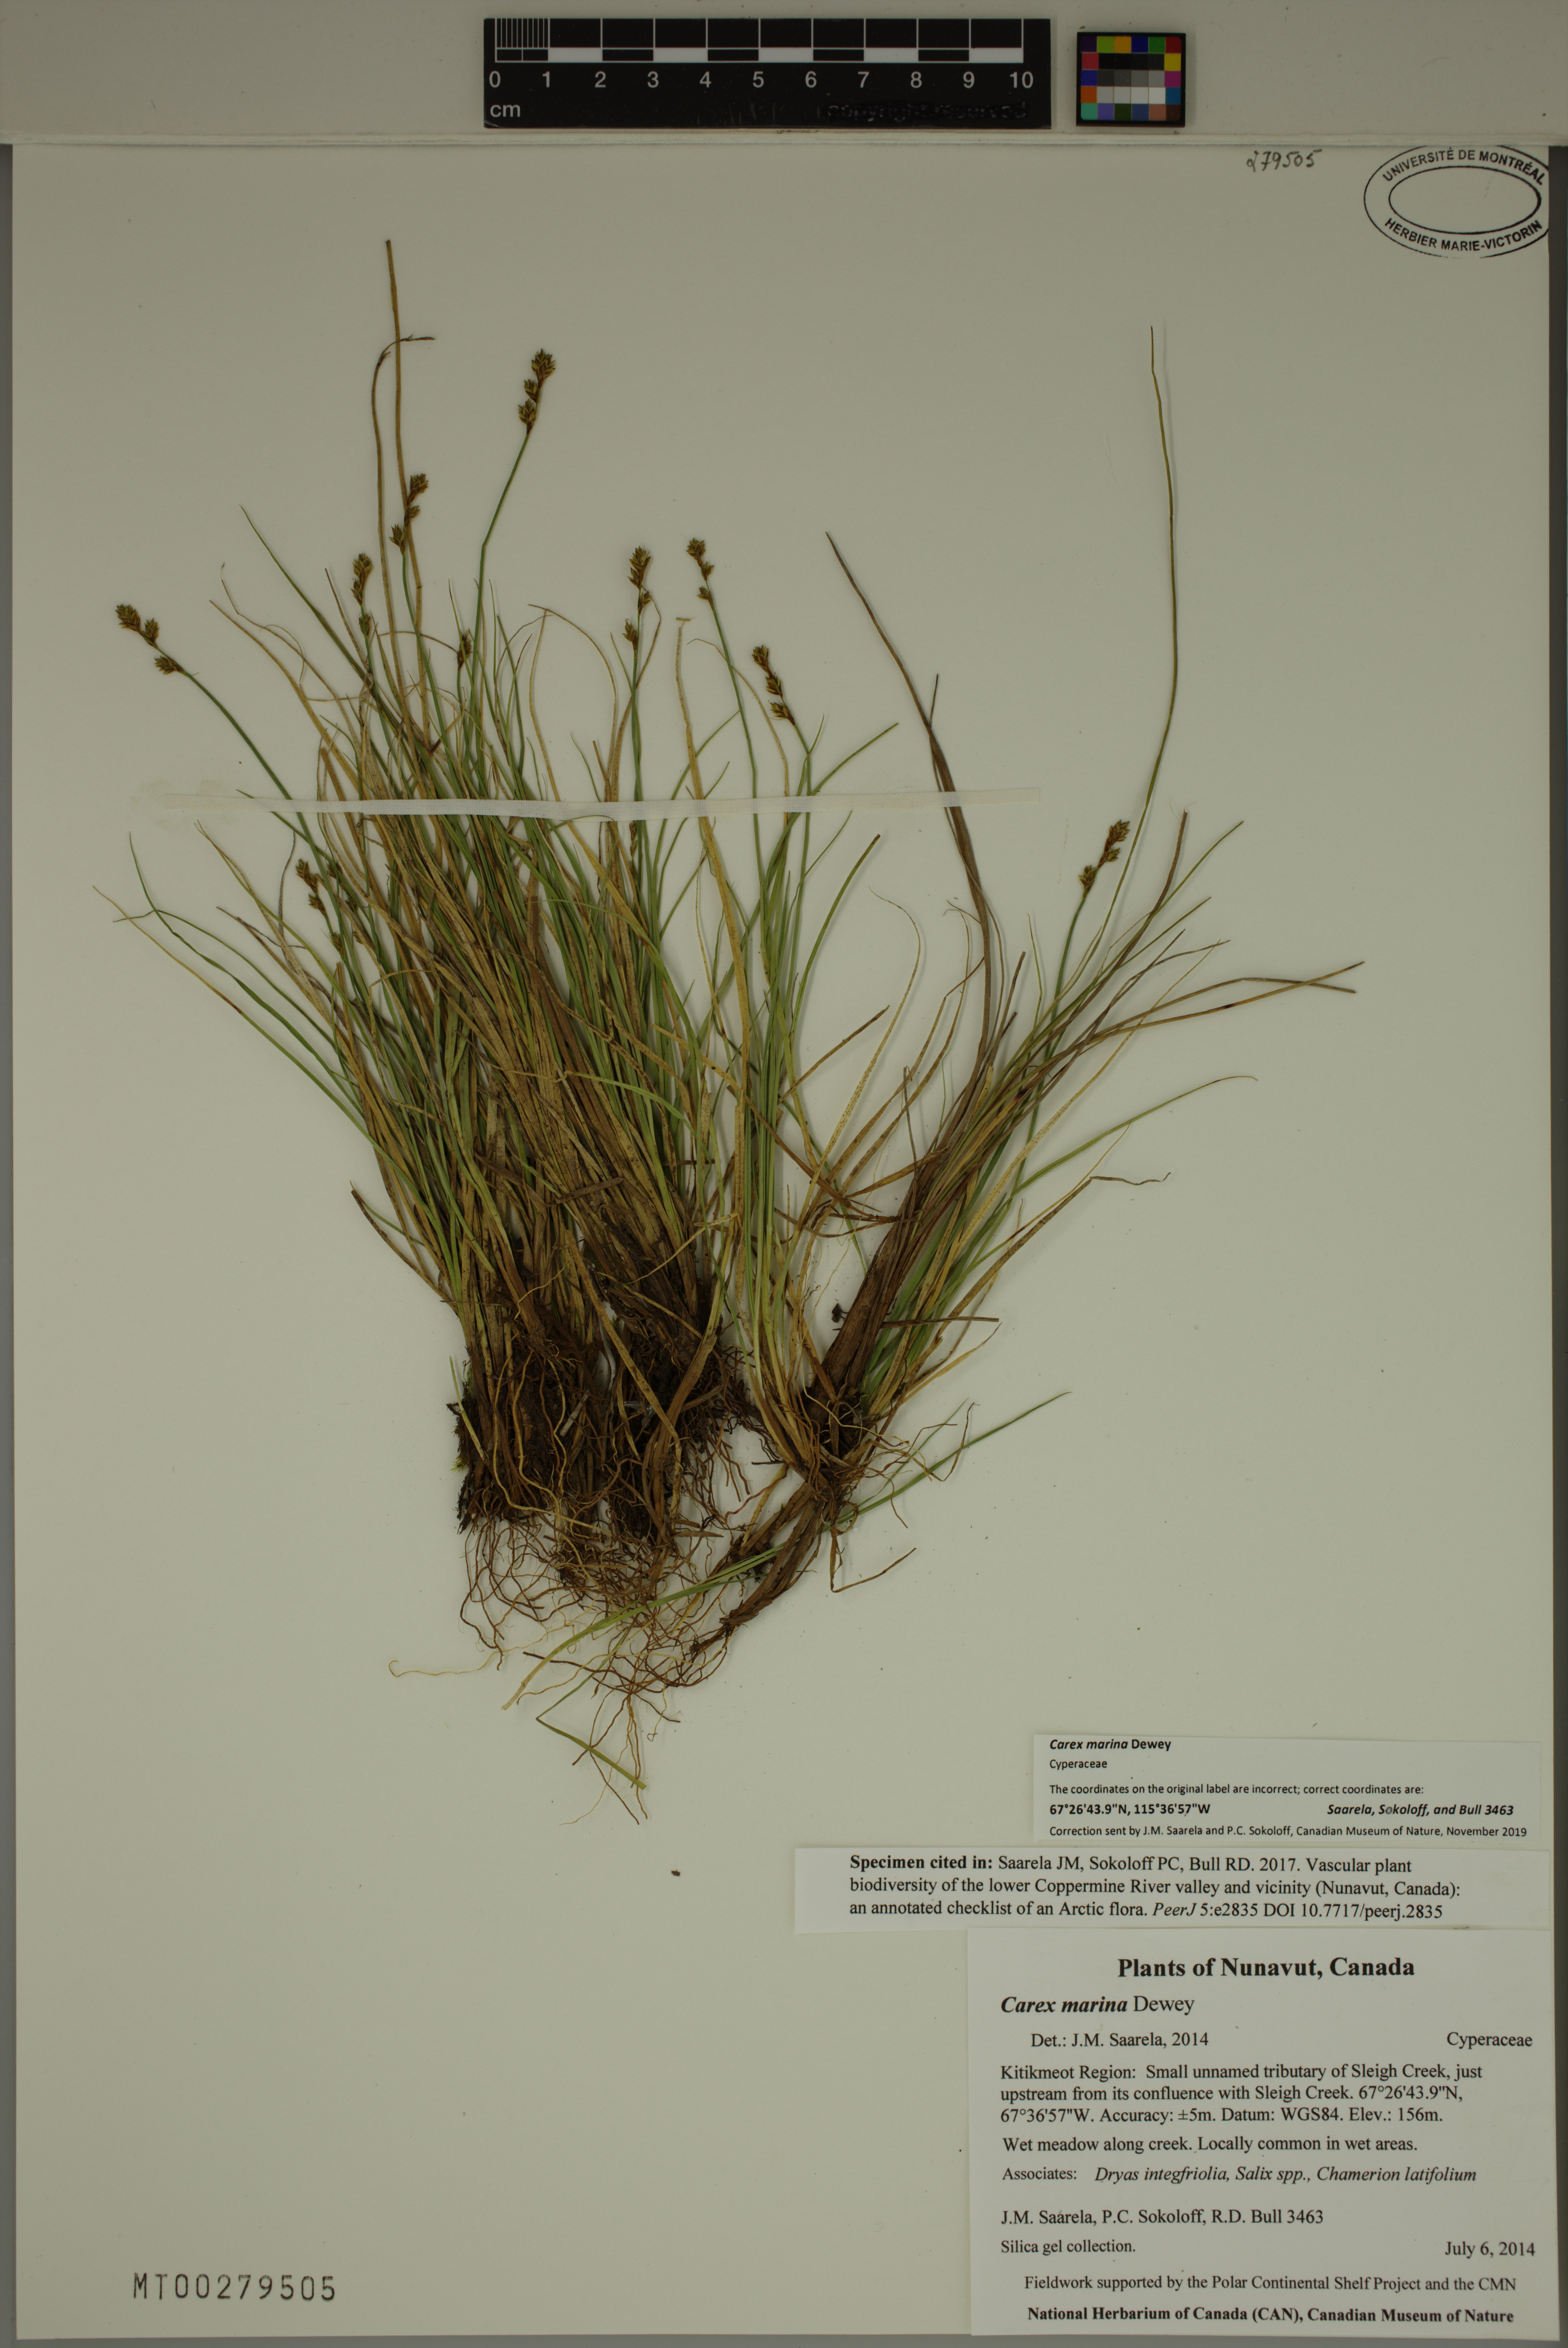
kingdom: Plantae
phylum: Tracheophyta
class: Liliopsida
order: Poales
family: Cyperaceae
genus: Carex
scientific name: Carex marina
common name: Seashore sedge
